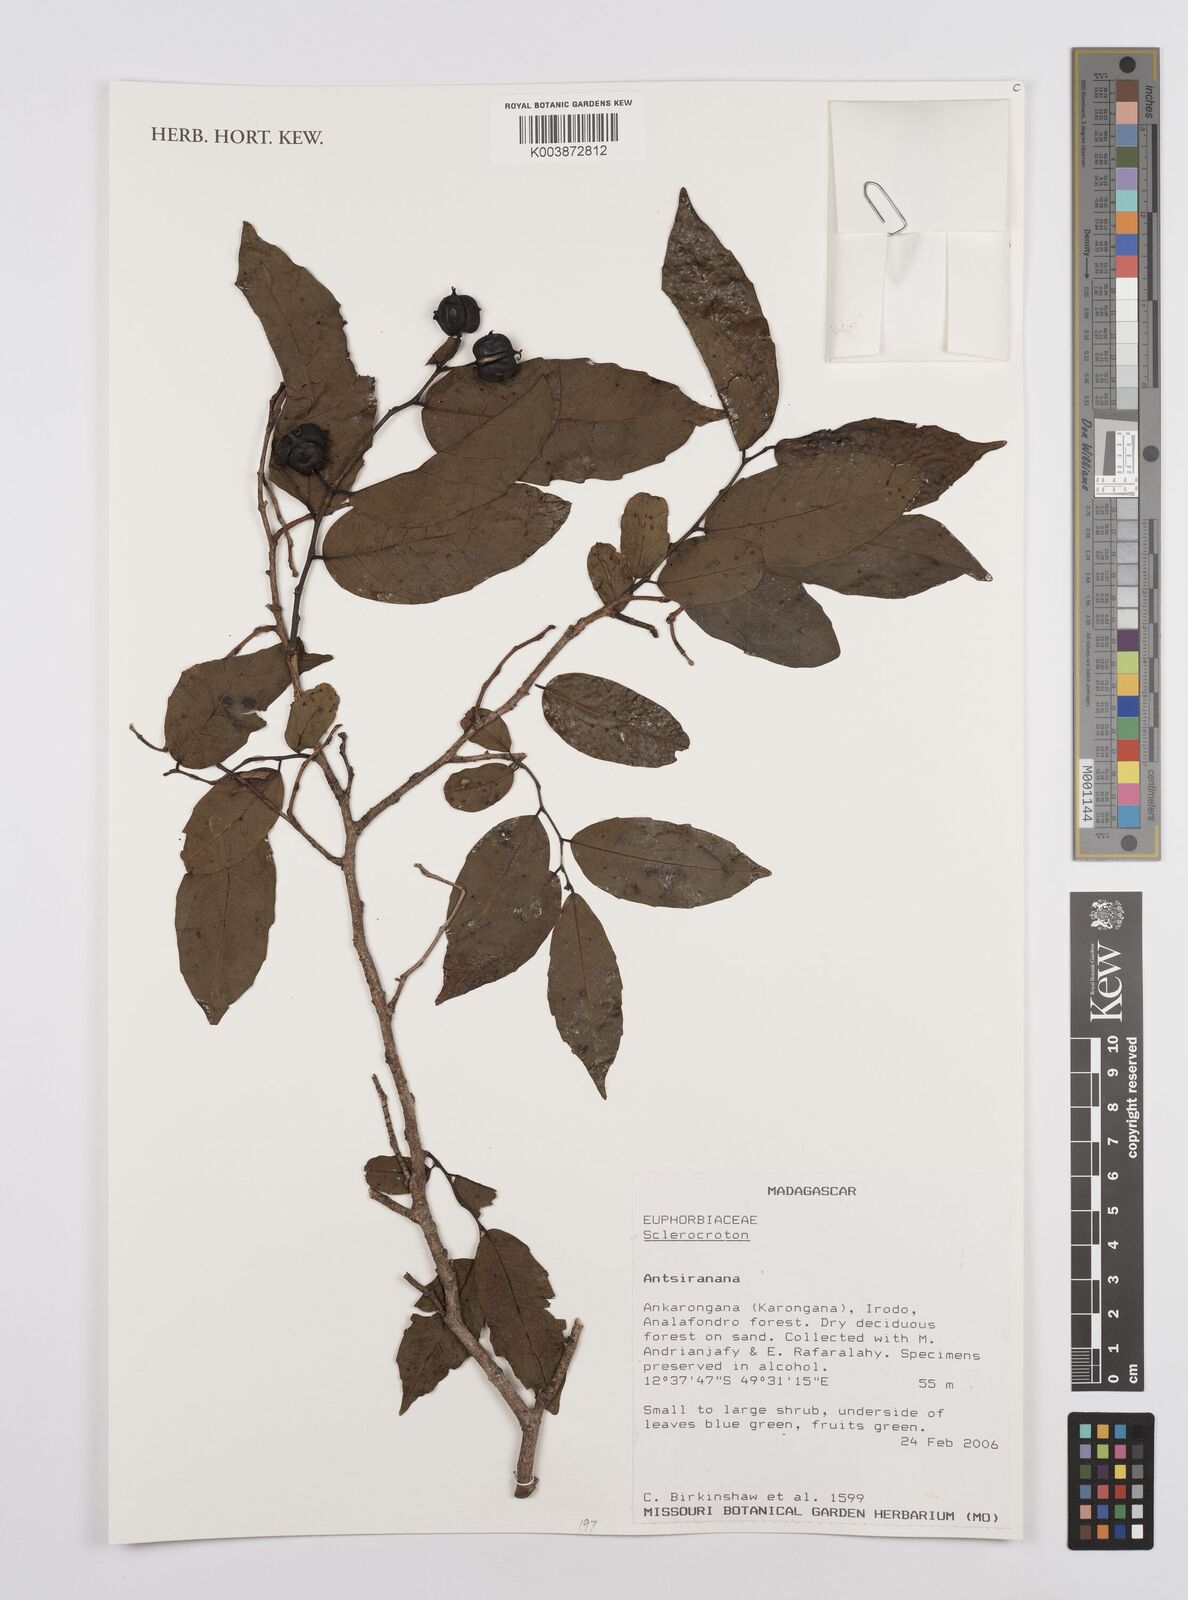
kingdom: Plantae
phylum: Tracheophyta
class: Magnoliopsida
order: Malpighiales
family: Euphorbiaceae
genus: Sclerocroton
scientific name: Sclerocroton
